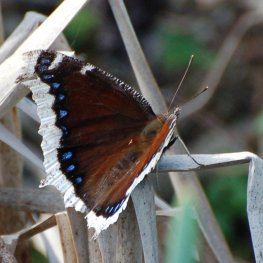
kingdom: Animalia
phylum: Arthropoda
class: Insecta
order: Lepidoptera
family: Nymphalidae
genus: Nymphalis
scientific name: Nymphalis antiopa
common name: Mourning Cloak
